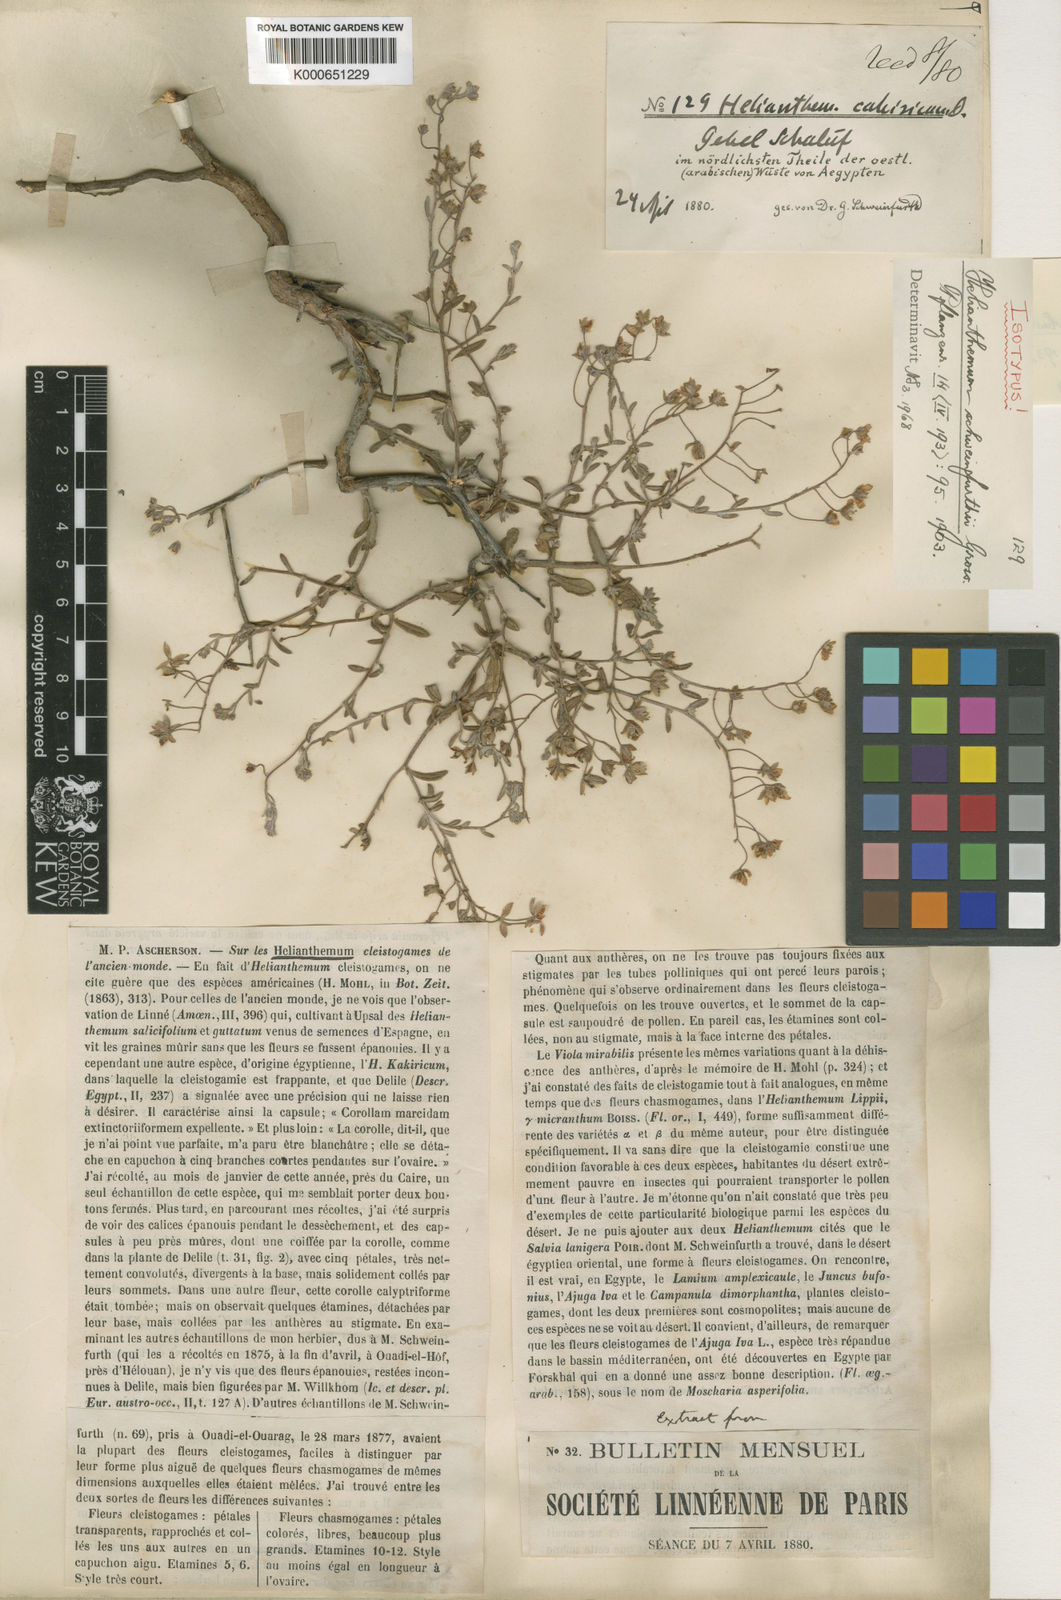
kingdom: Plantae
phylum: Tracheophyta
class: Magnoliopsida
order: Malvales
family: Cistaceae
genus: Helianthemum
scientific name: Helianthemum schweinfurthii
